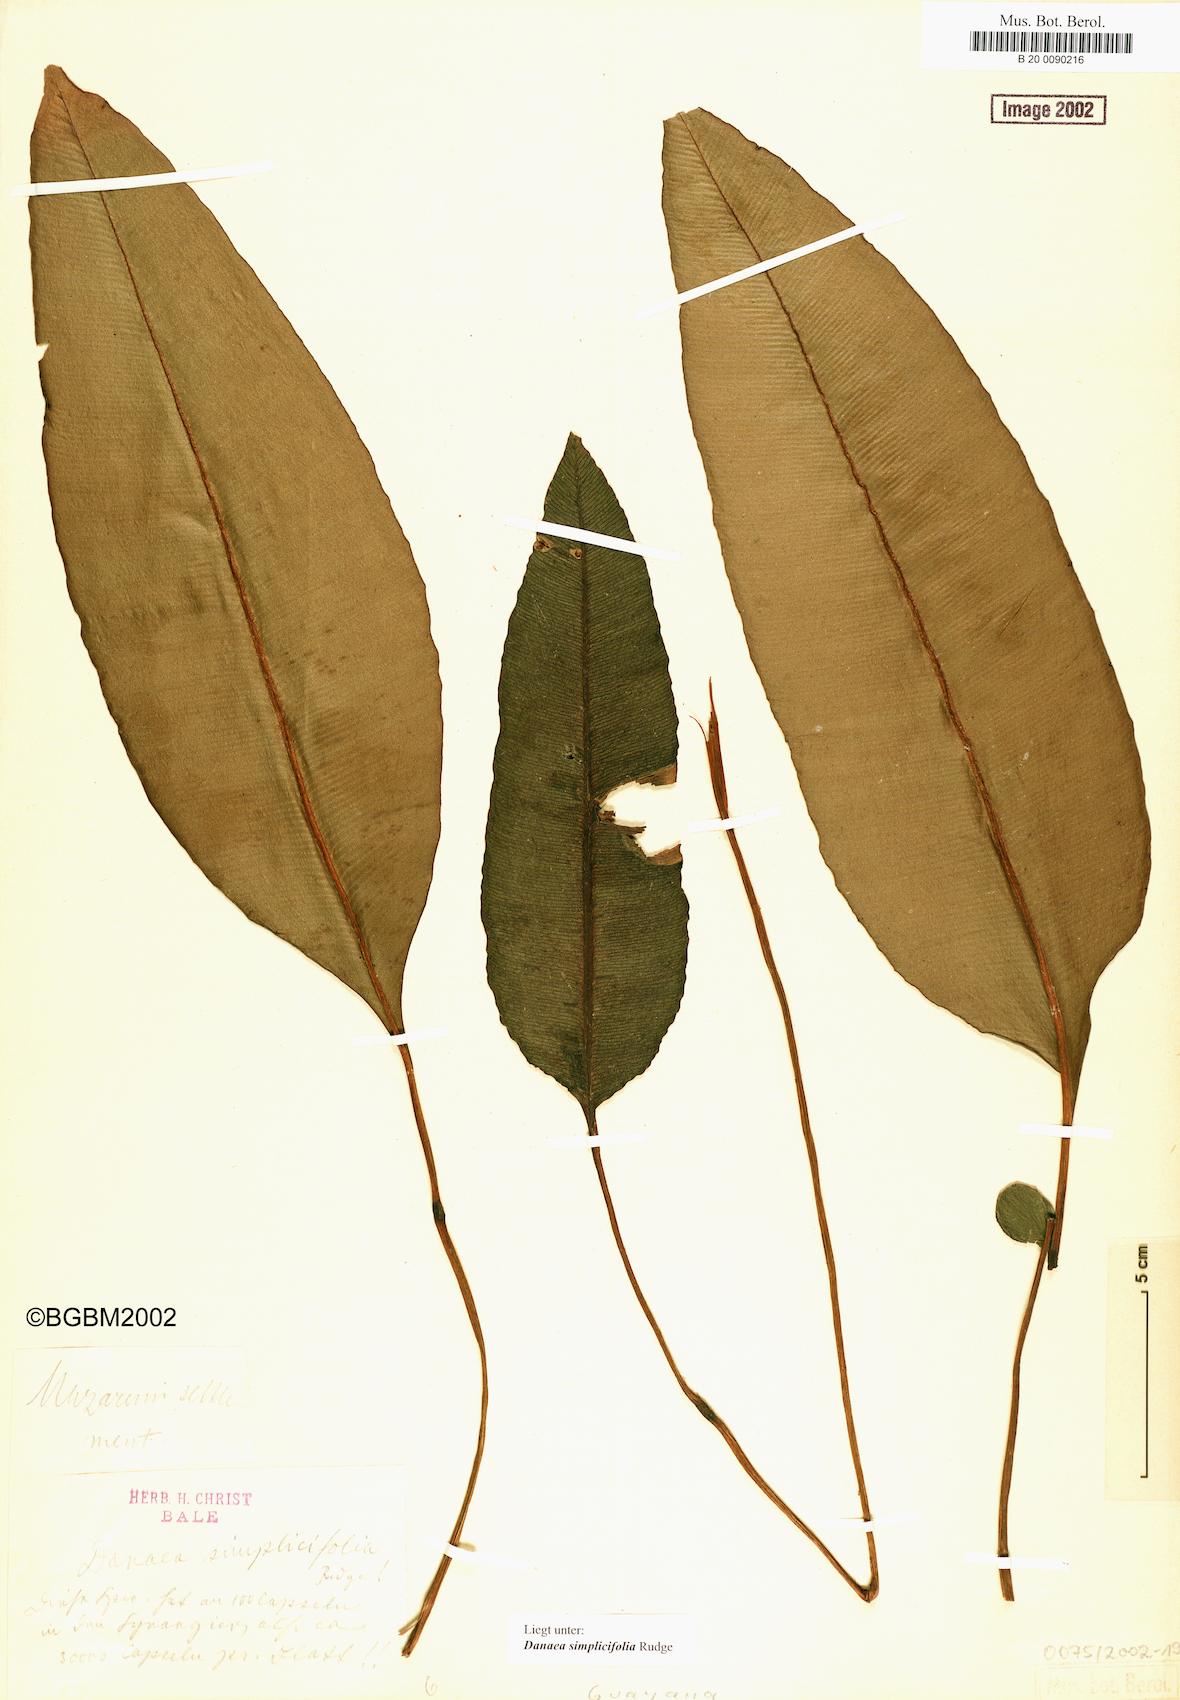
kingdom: Plantae
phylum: Tracheophyta
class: Polypodiopsida
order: Marattiales
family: Marattiaceae
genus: Danaea
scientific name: Danaea simplicifolia
